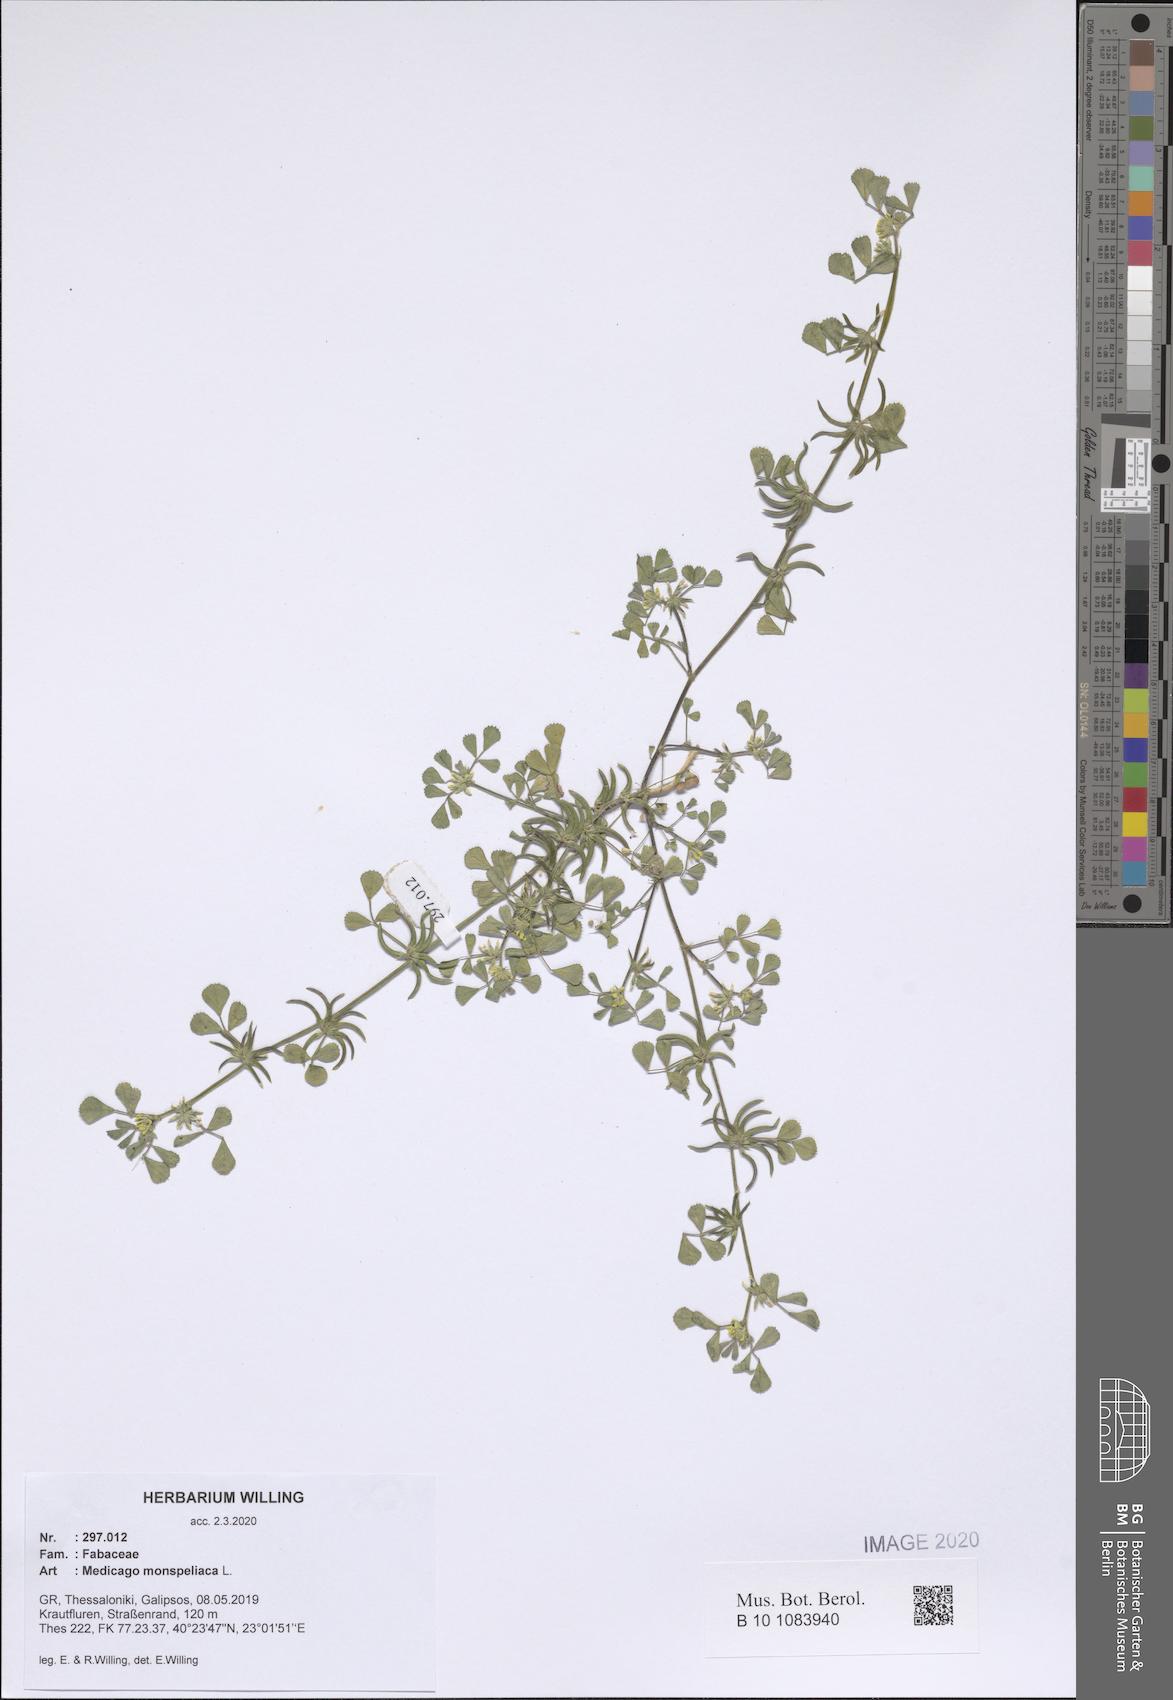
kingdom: Plantae
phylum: Tracheophyta
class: Magnoliopsida
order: Fabales
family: Fabaceae
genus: Medicago
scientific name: Medicago monspeliaca
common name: Hairy medick
